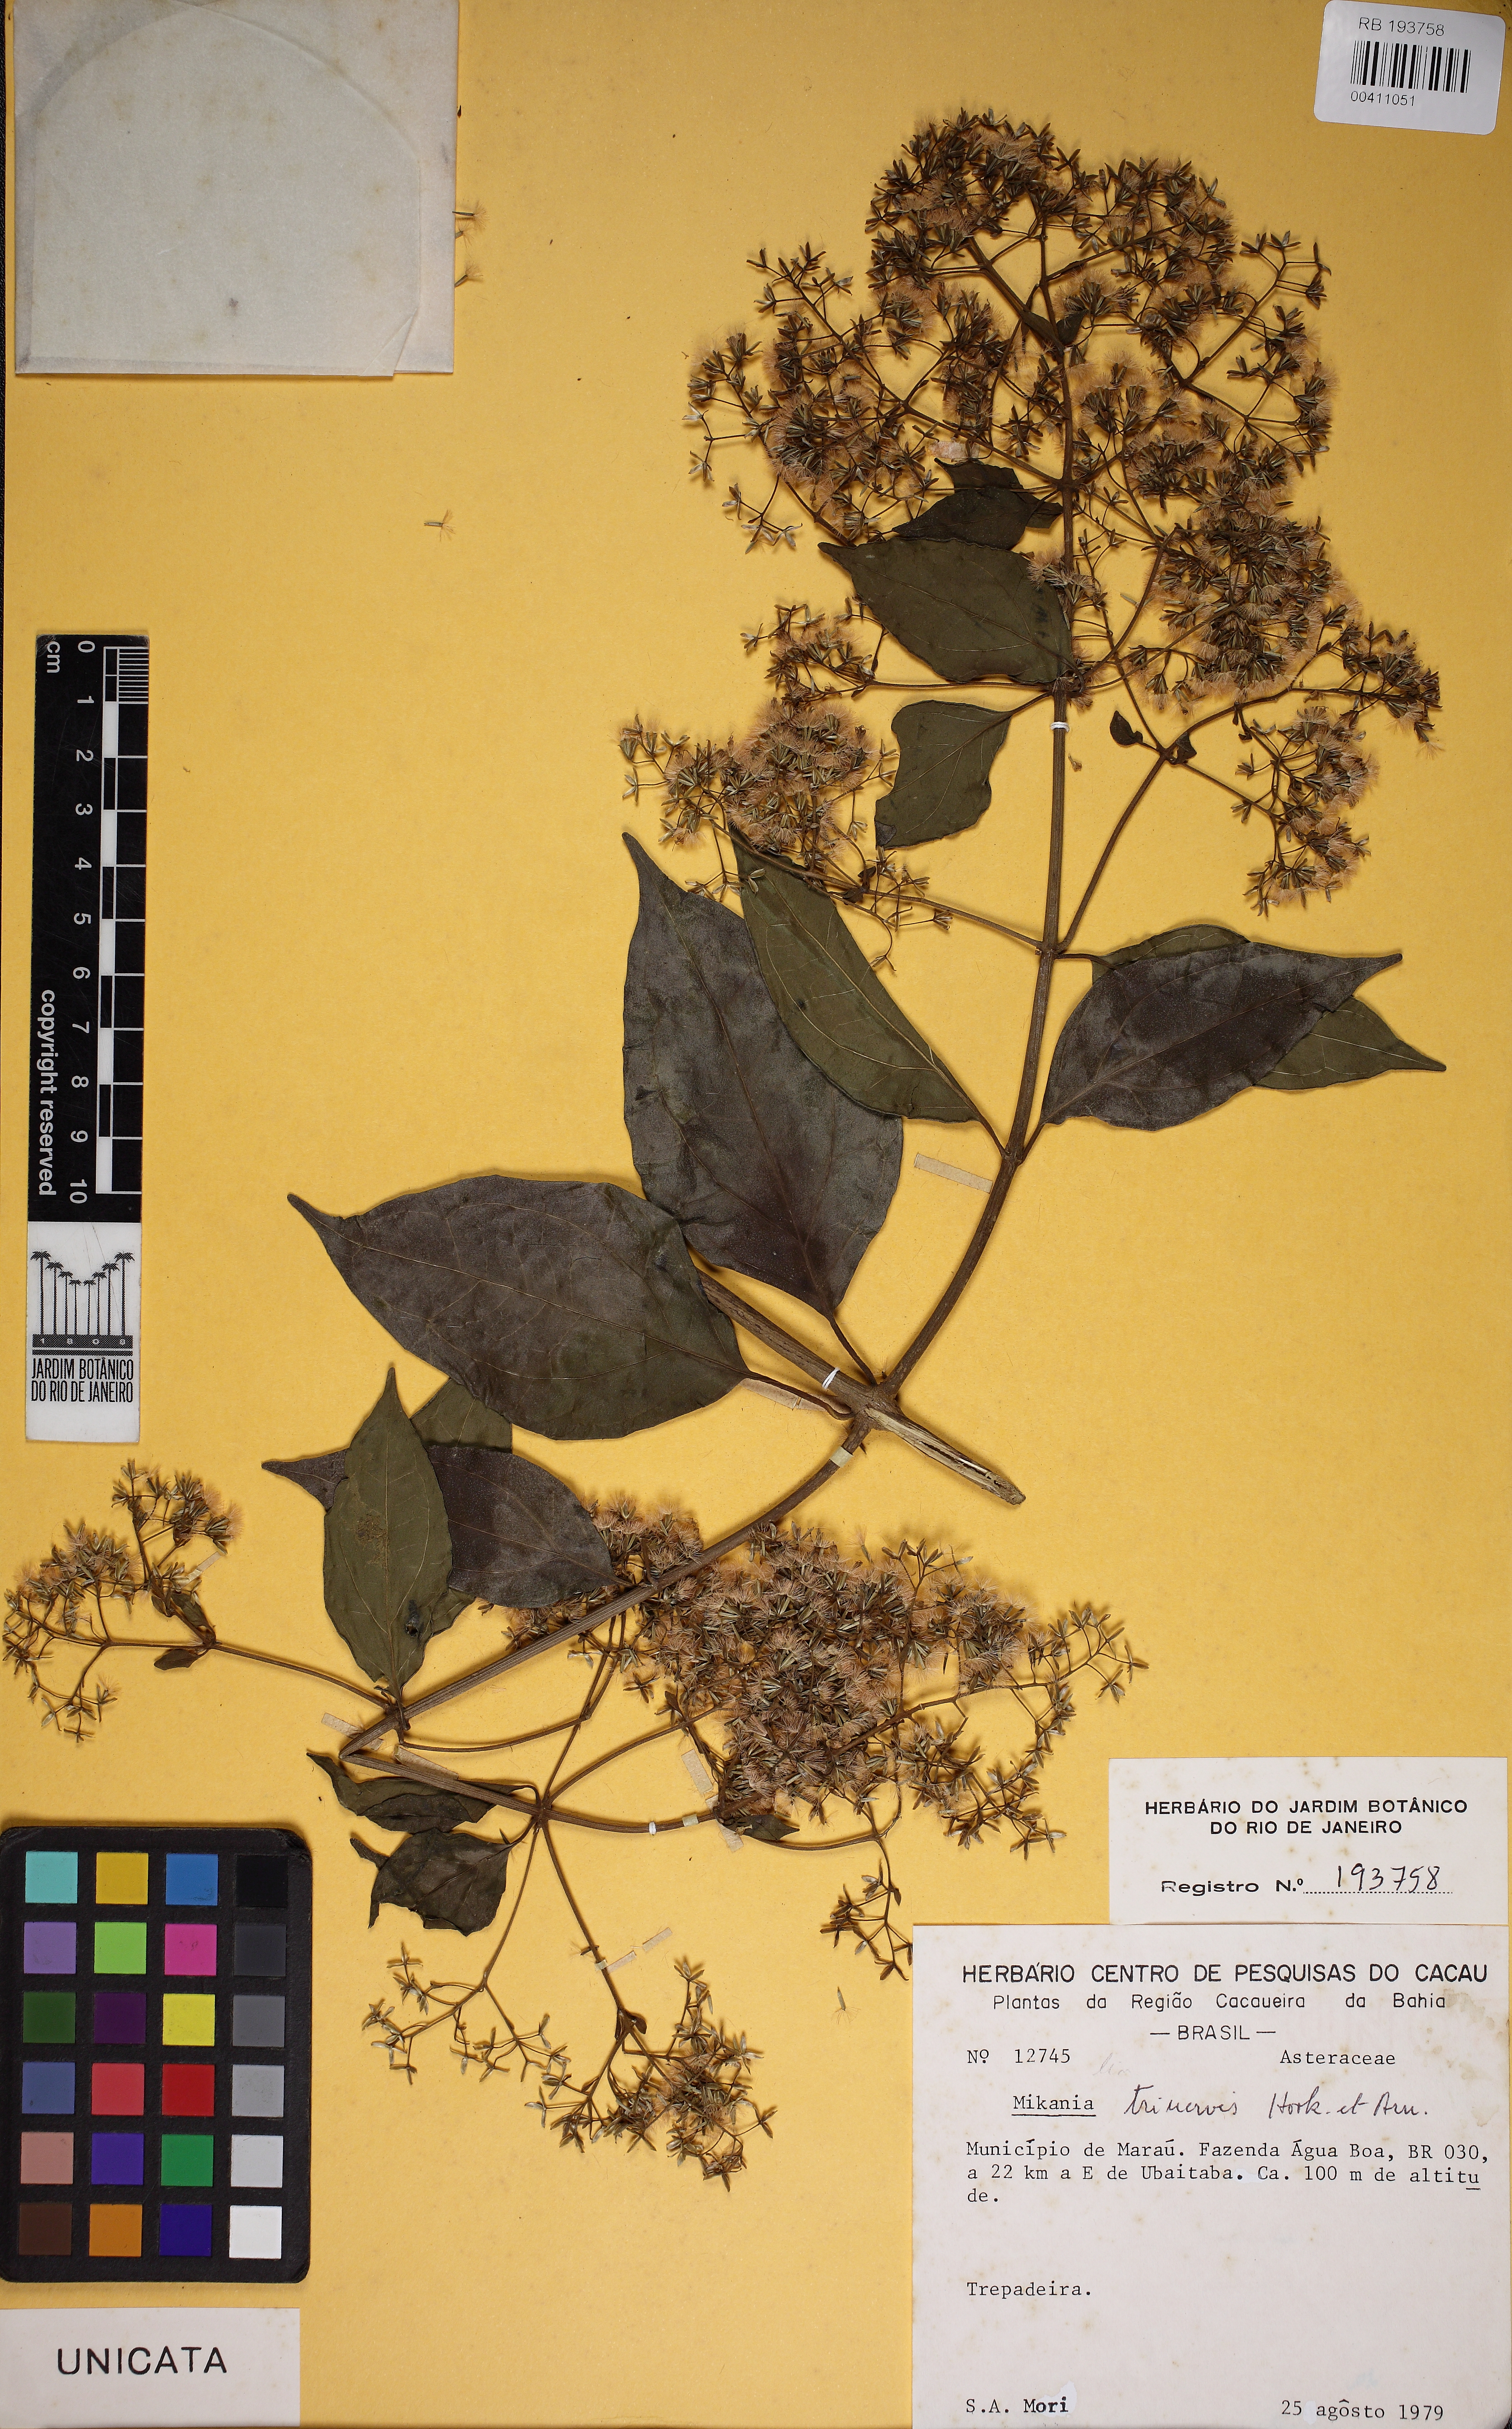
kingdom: Plantae
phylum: Tracheophyta
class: Magnoliopsida
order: Asterales
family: Asteraceae
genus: Mikania
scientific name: Mikania trinervis
